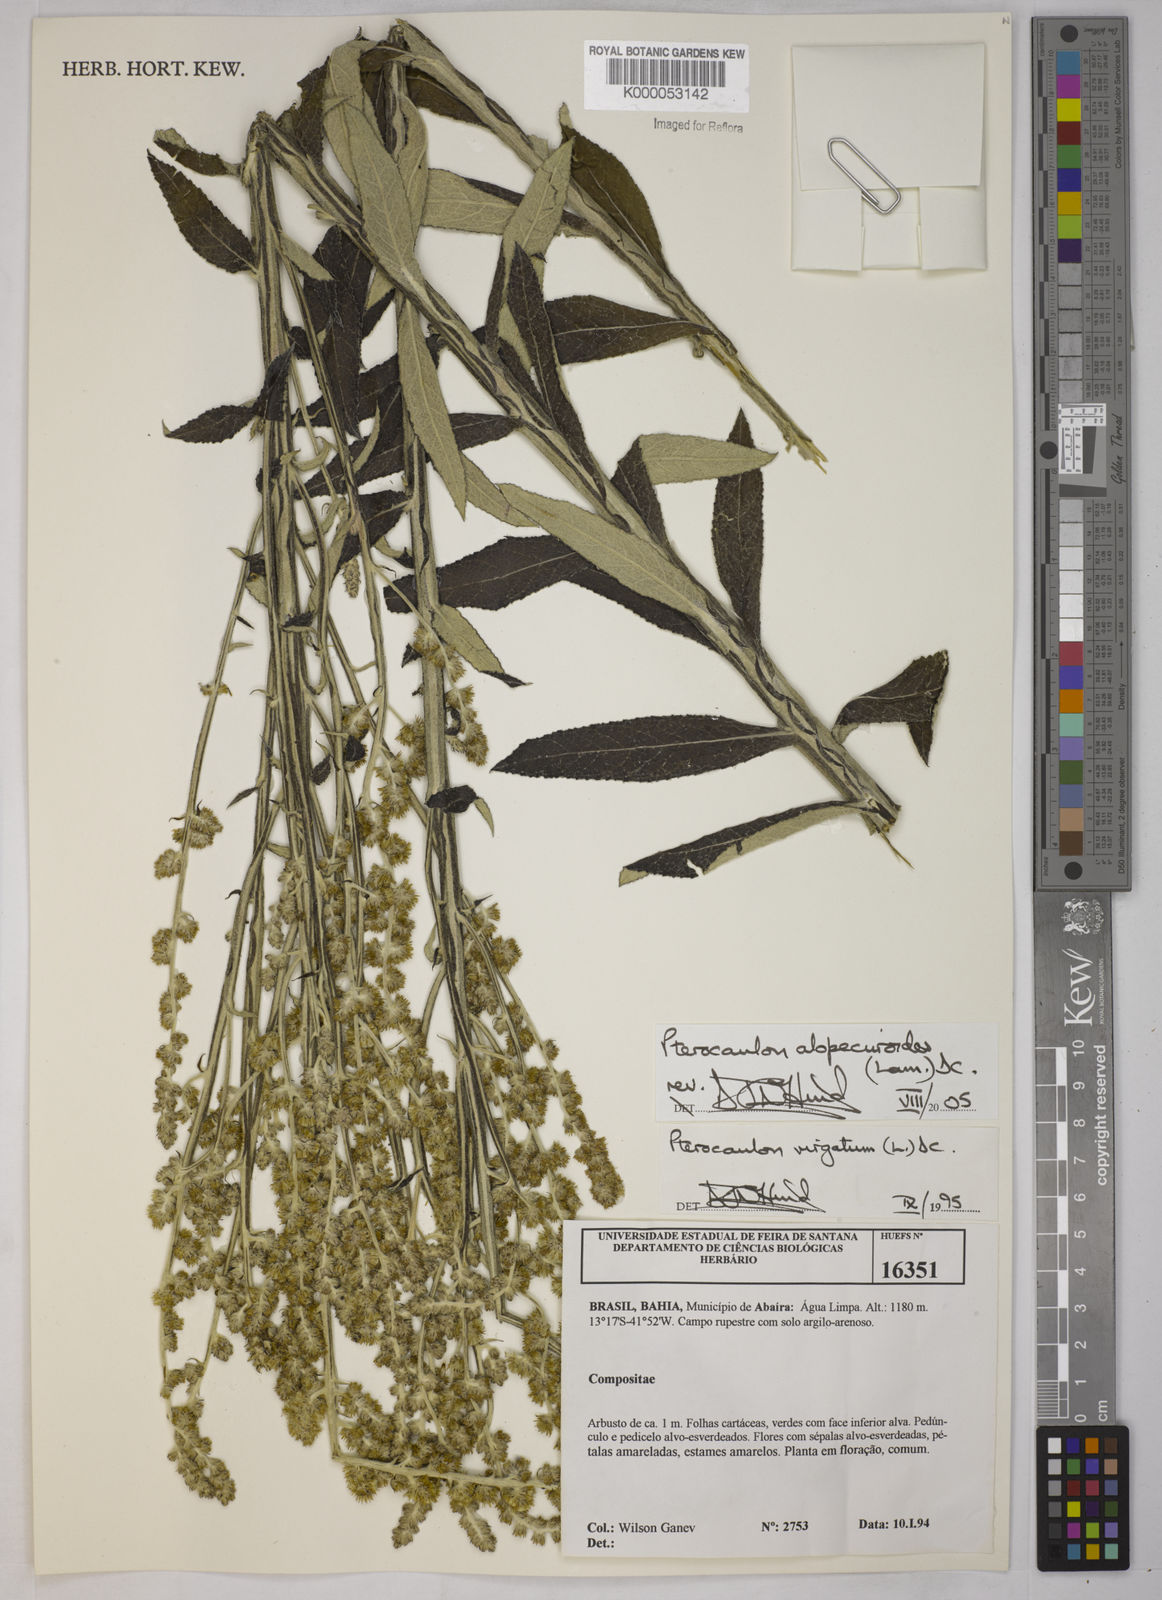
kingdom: Plantae
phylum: Tracheophyta
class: Magnoliopsida
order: Asterales
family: Asteraceae
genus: Pterocaulon
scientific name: Pterocaulon alopecuroides
